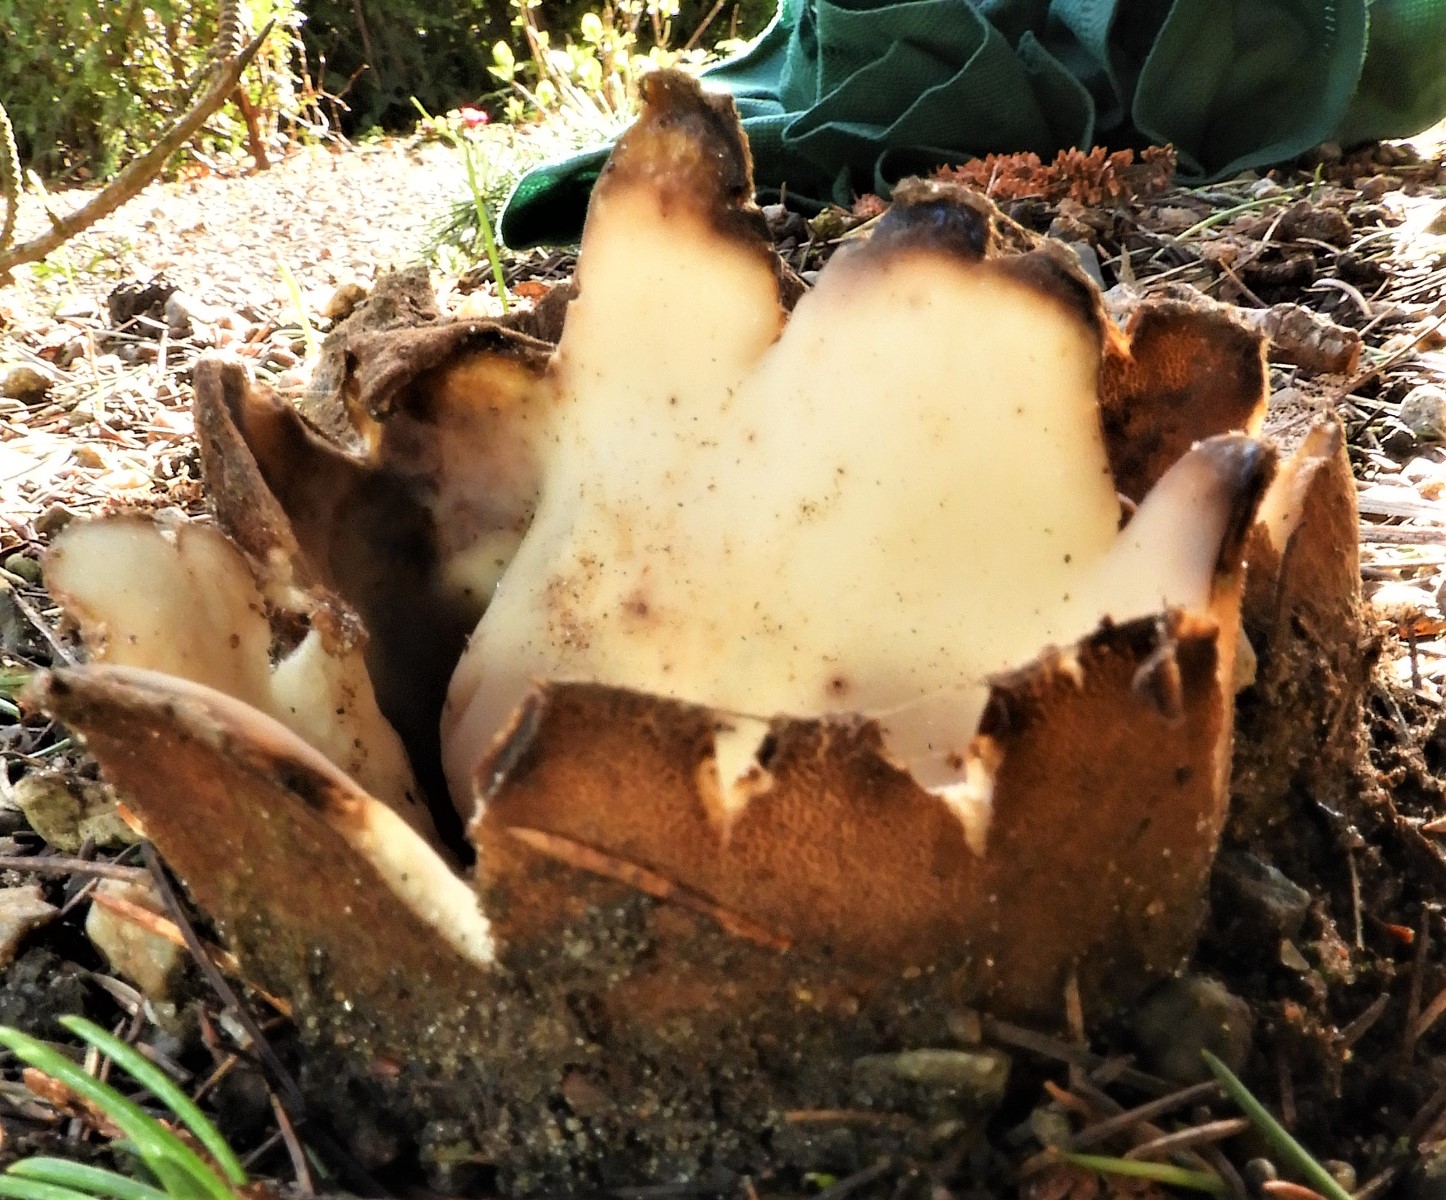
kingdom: Fungi
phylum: Ascomycota
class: Pezizomycetes
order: Pezizales
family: Pyronemataceae
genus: Geopora
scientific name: Geopora sumneriana
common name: vår-jordbæger
